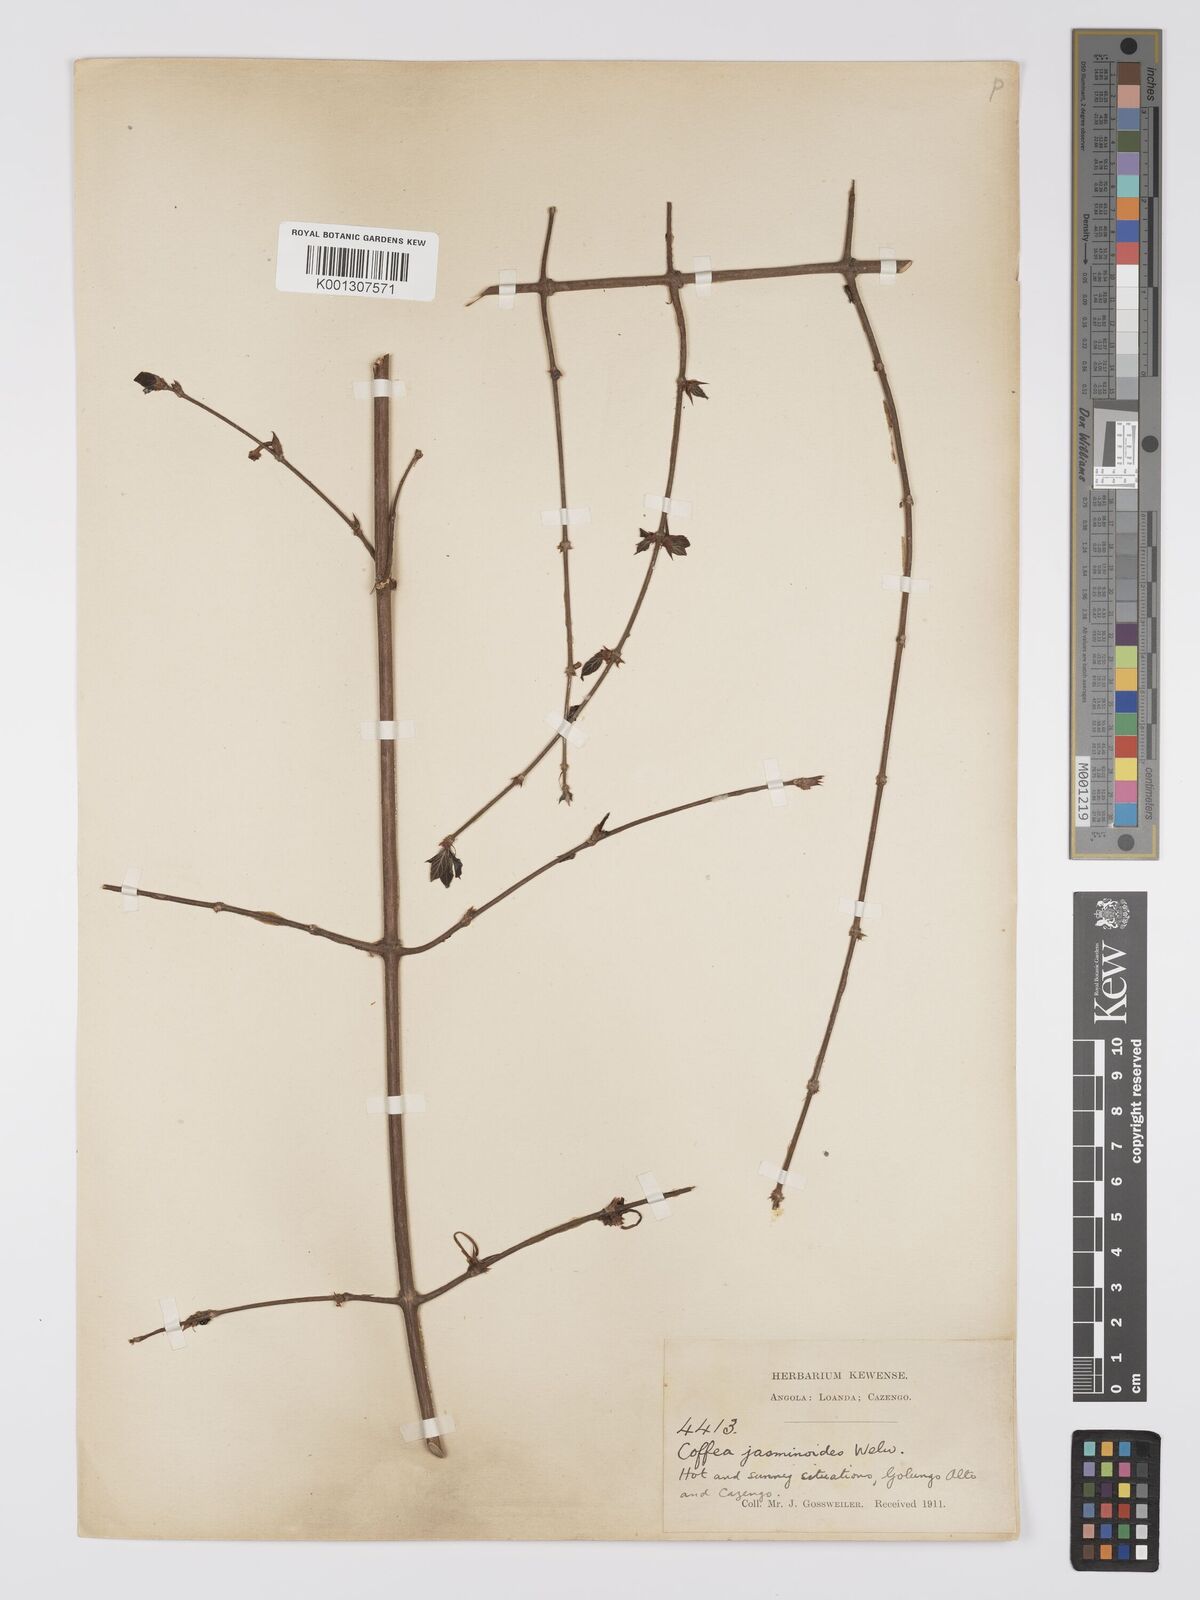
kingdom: Plantae
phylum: Tracheophyta
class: Magnoliopsida
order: Gentianales
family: Rubiaceae
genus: Argocoffeopsis
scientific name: Argocoffeopsis eketensis
